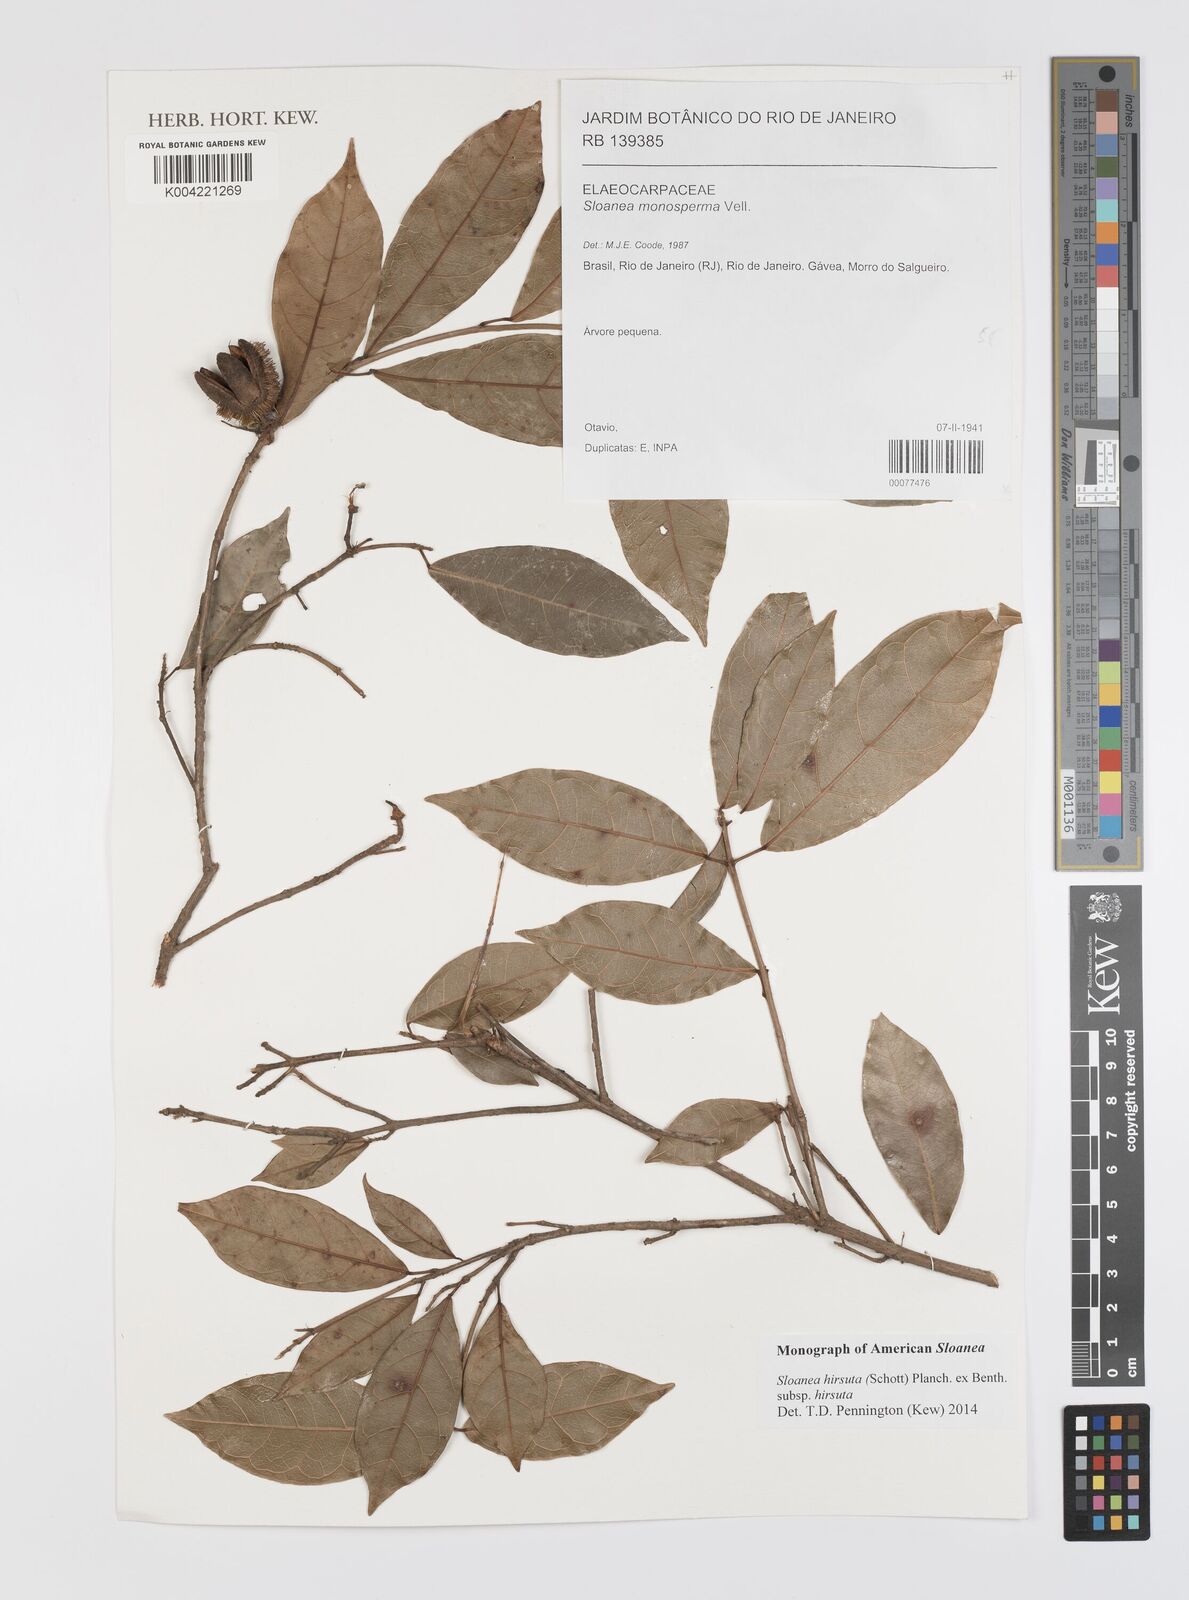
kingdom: Plantae
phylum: Tracheophyta
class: Magnoliopsida
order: Oxalidales
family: Elaeocarpaceae
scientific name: Elaeocarpaceae
